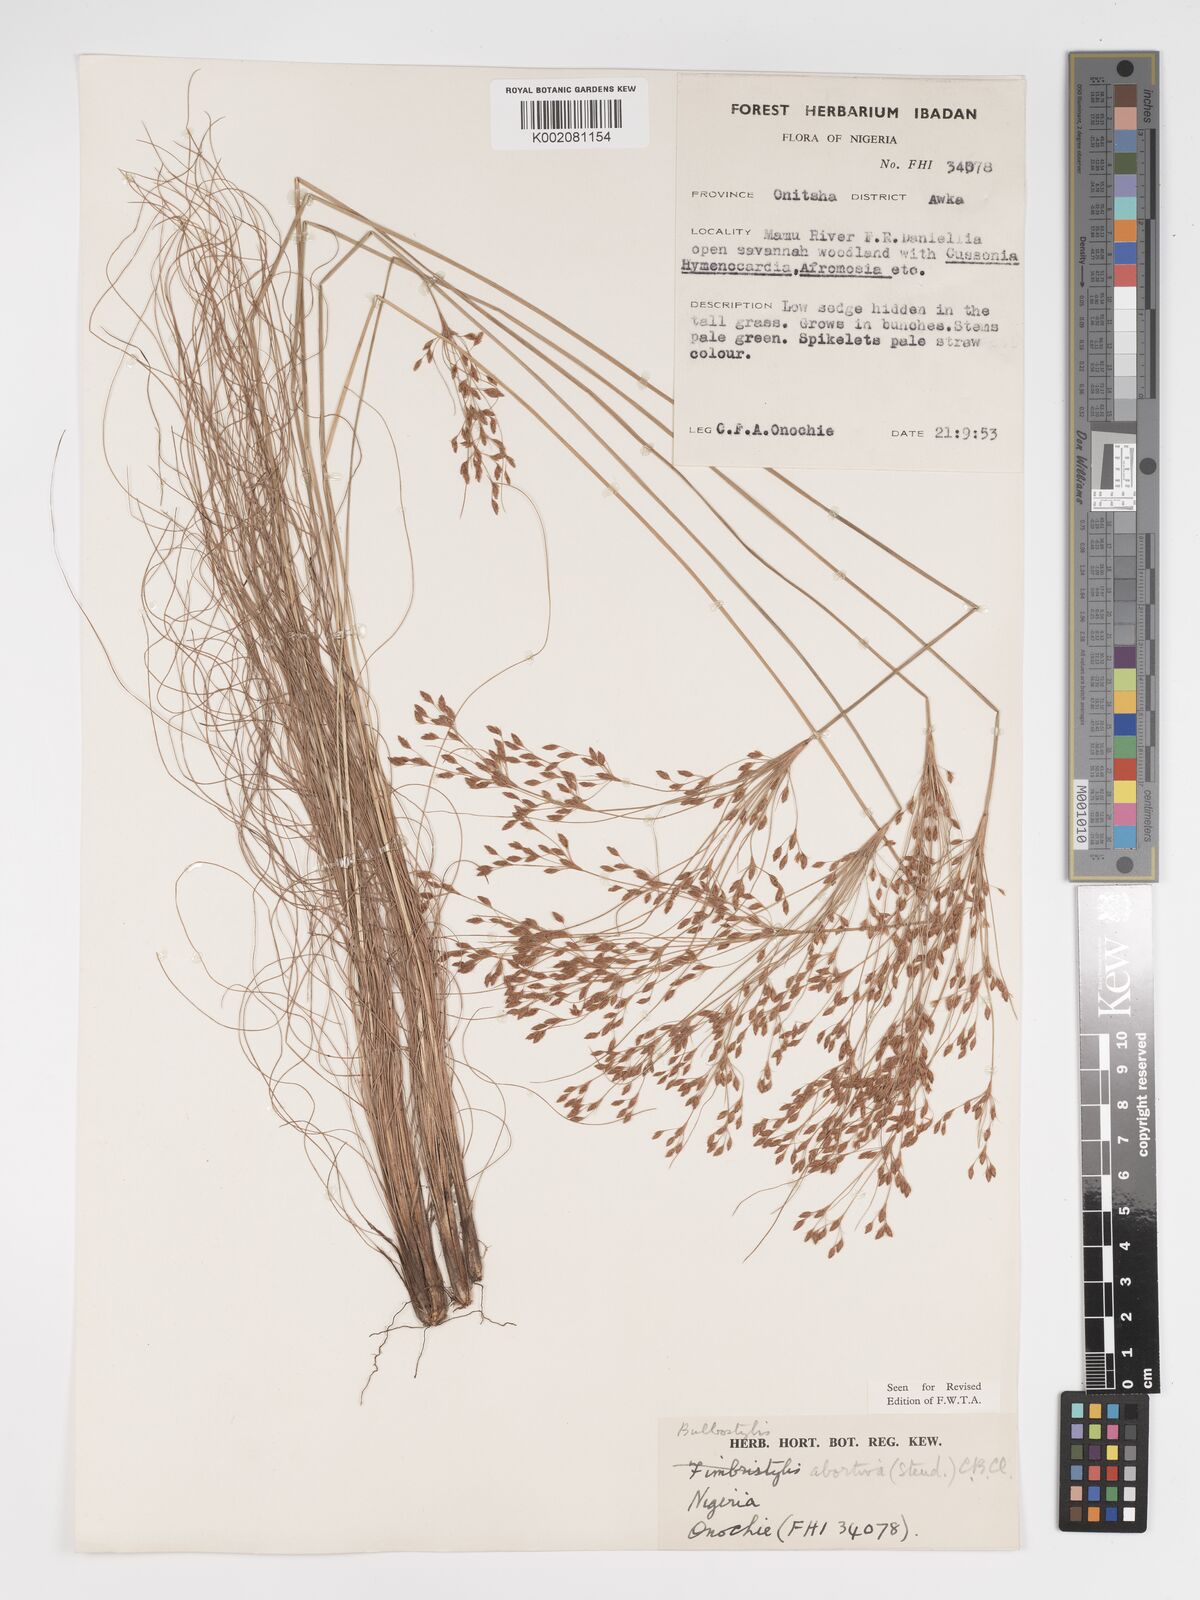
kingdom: Plantae
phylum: Tracheophyta
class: Liliopsida
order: Poales
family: Cyperaceae
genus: Bulbostylis
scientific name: Bulbostylis abortiva
